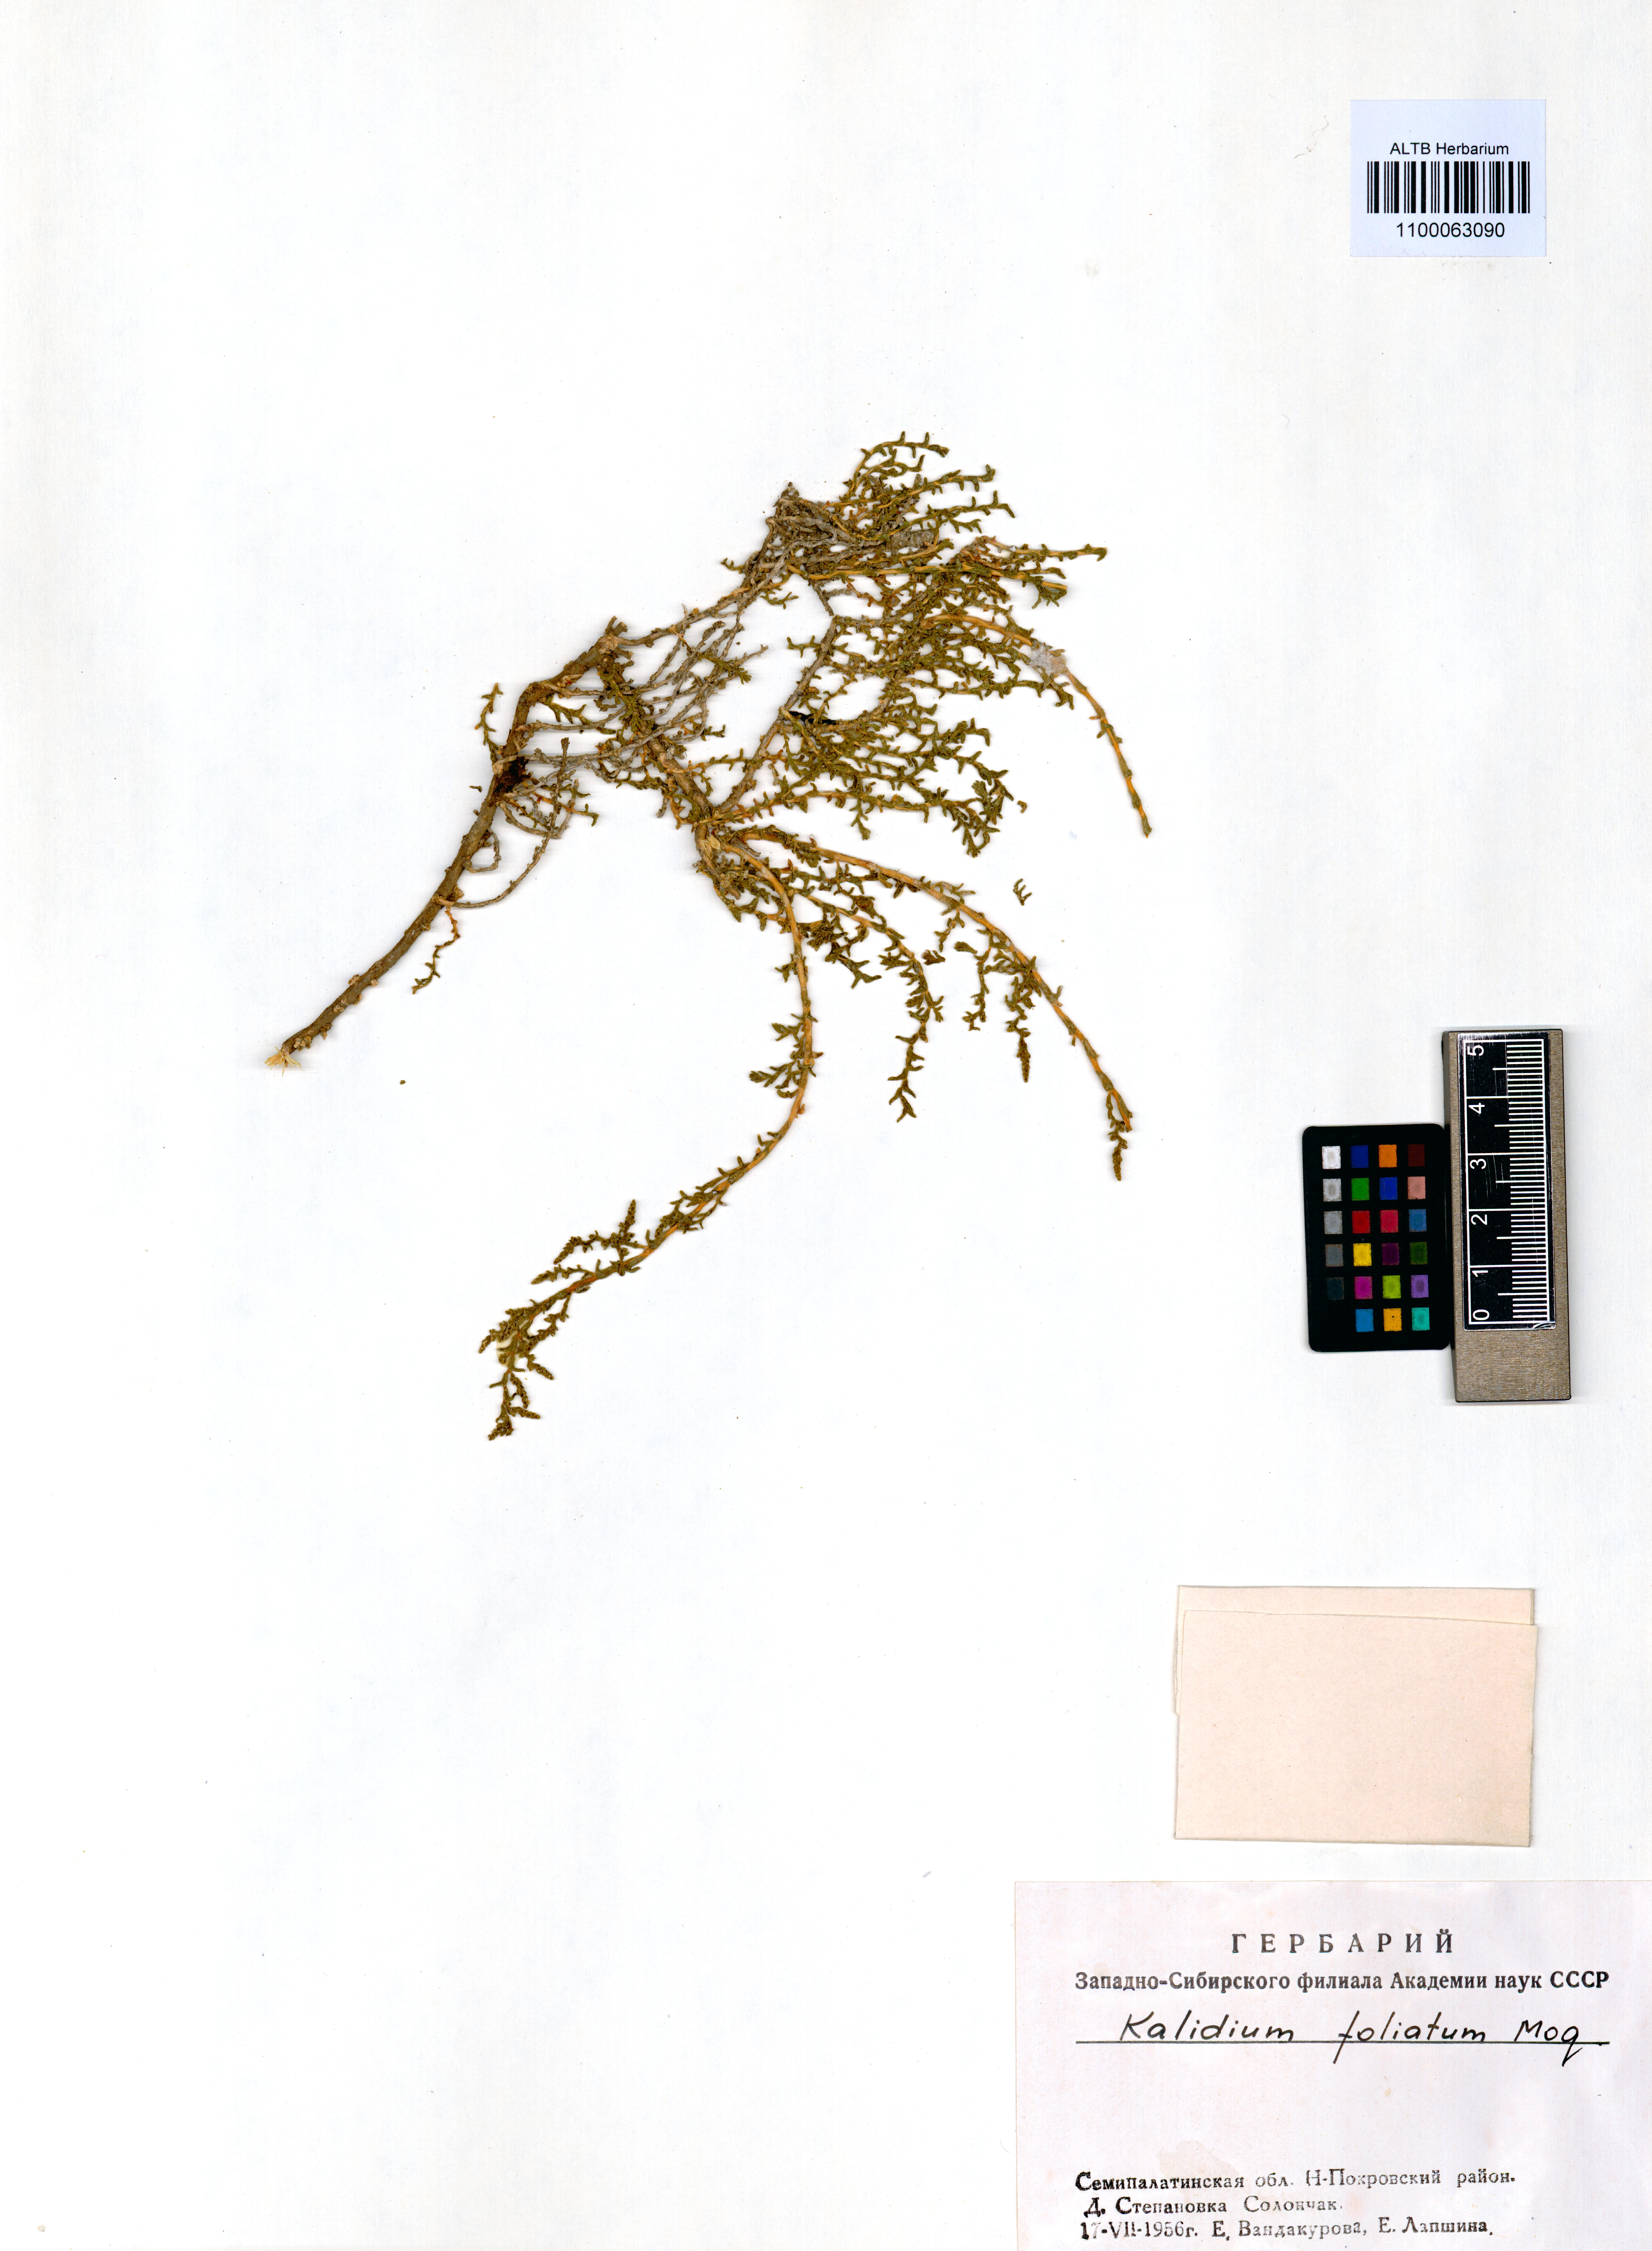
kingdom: Plantae
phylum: Tracheophyta
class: Magnoliopsida
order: Caryophyllales
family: Amaranthaceae
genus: Kalidium
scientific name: Kalidium foliatum
